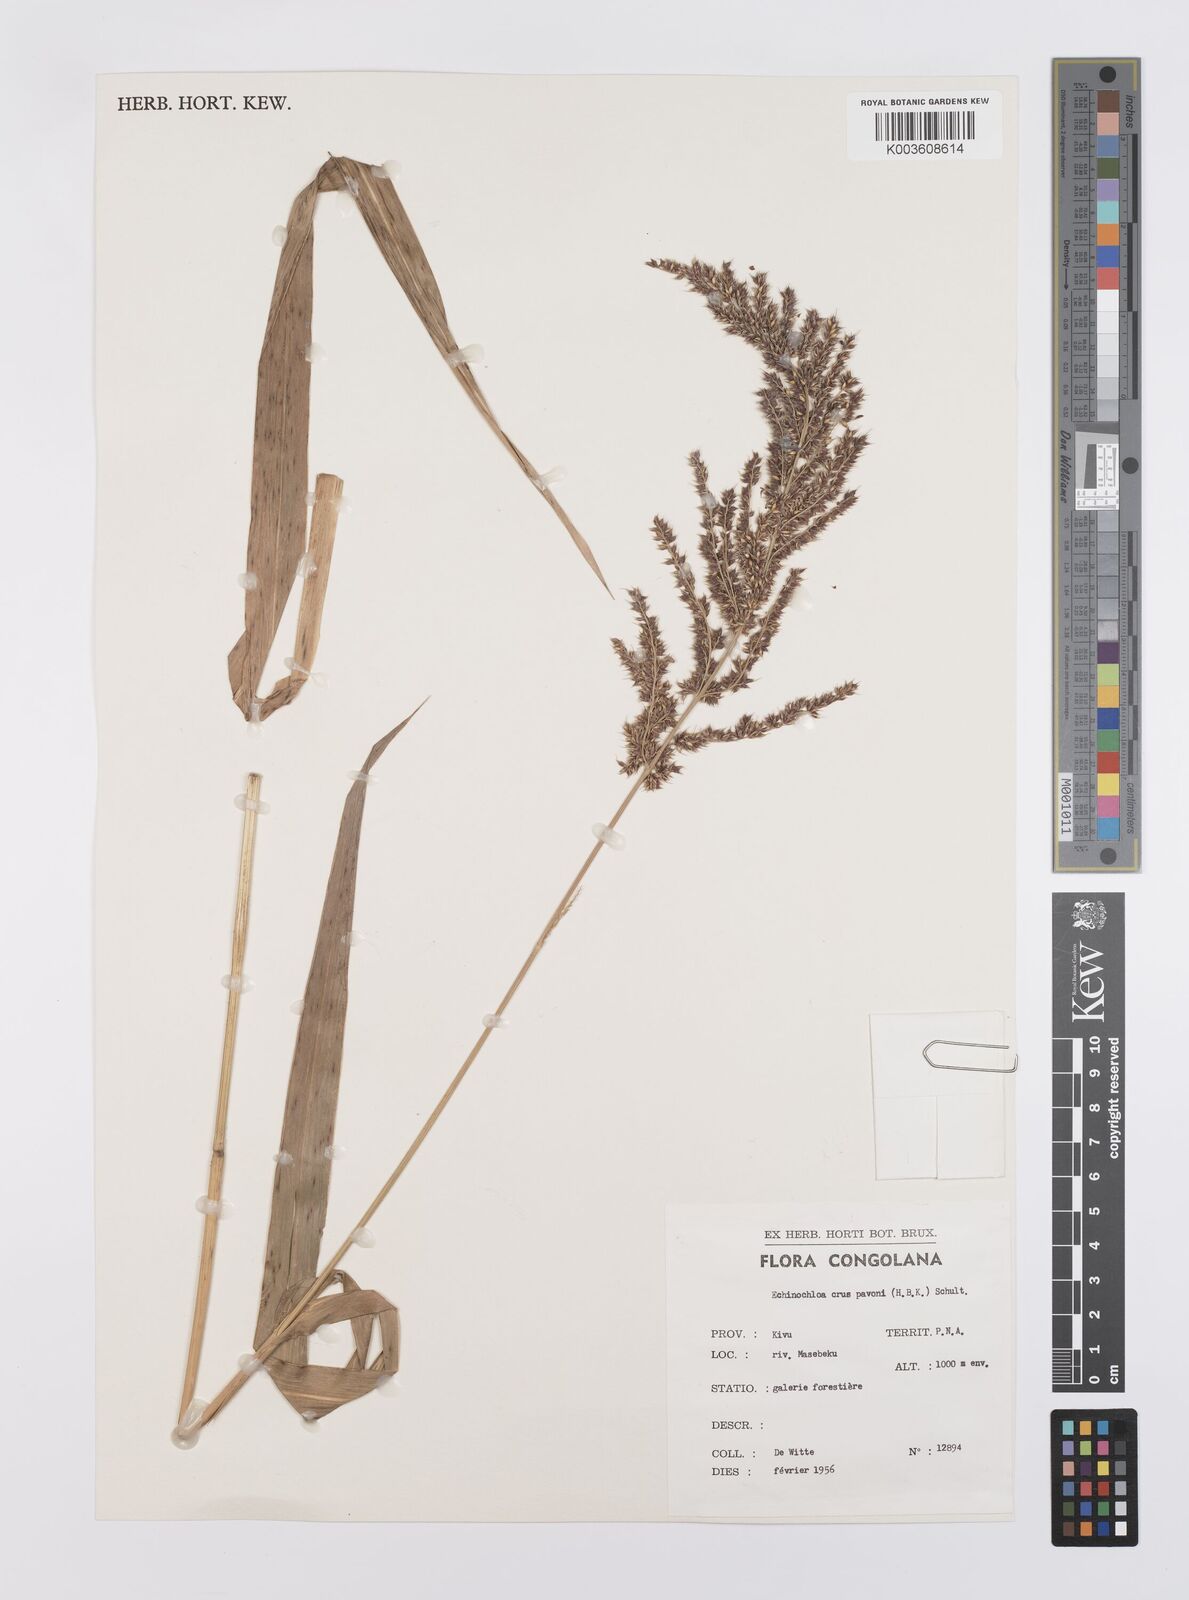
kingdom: Plantae
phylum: Tracheophyta
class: Liliopsida
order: Poales
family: Poaceae
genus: Echinochloa
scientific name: Echinochloa crus-pavonis
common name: Gulf cockspur grass
